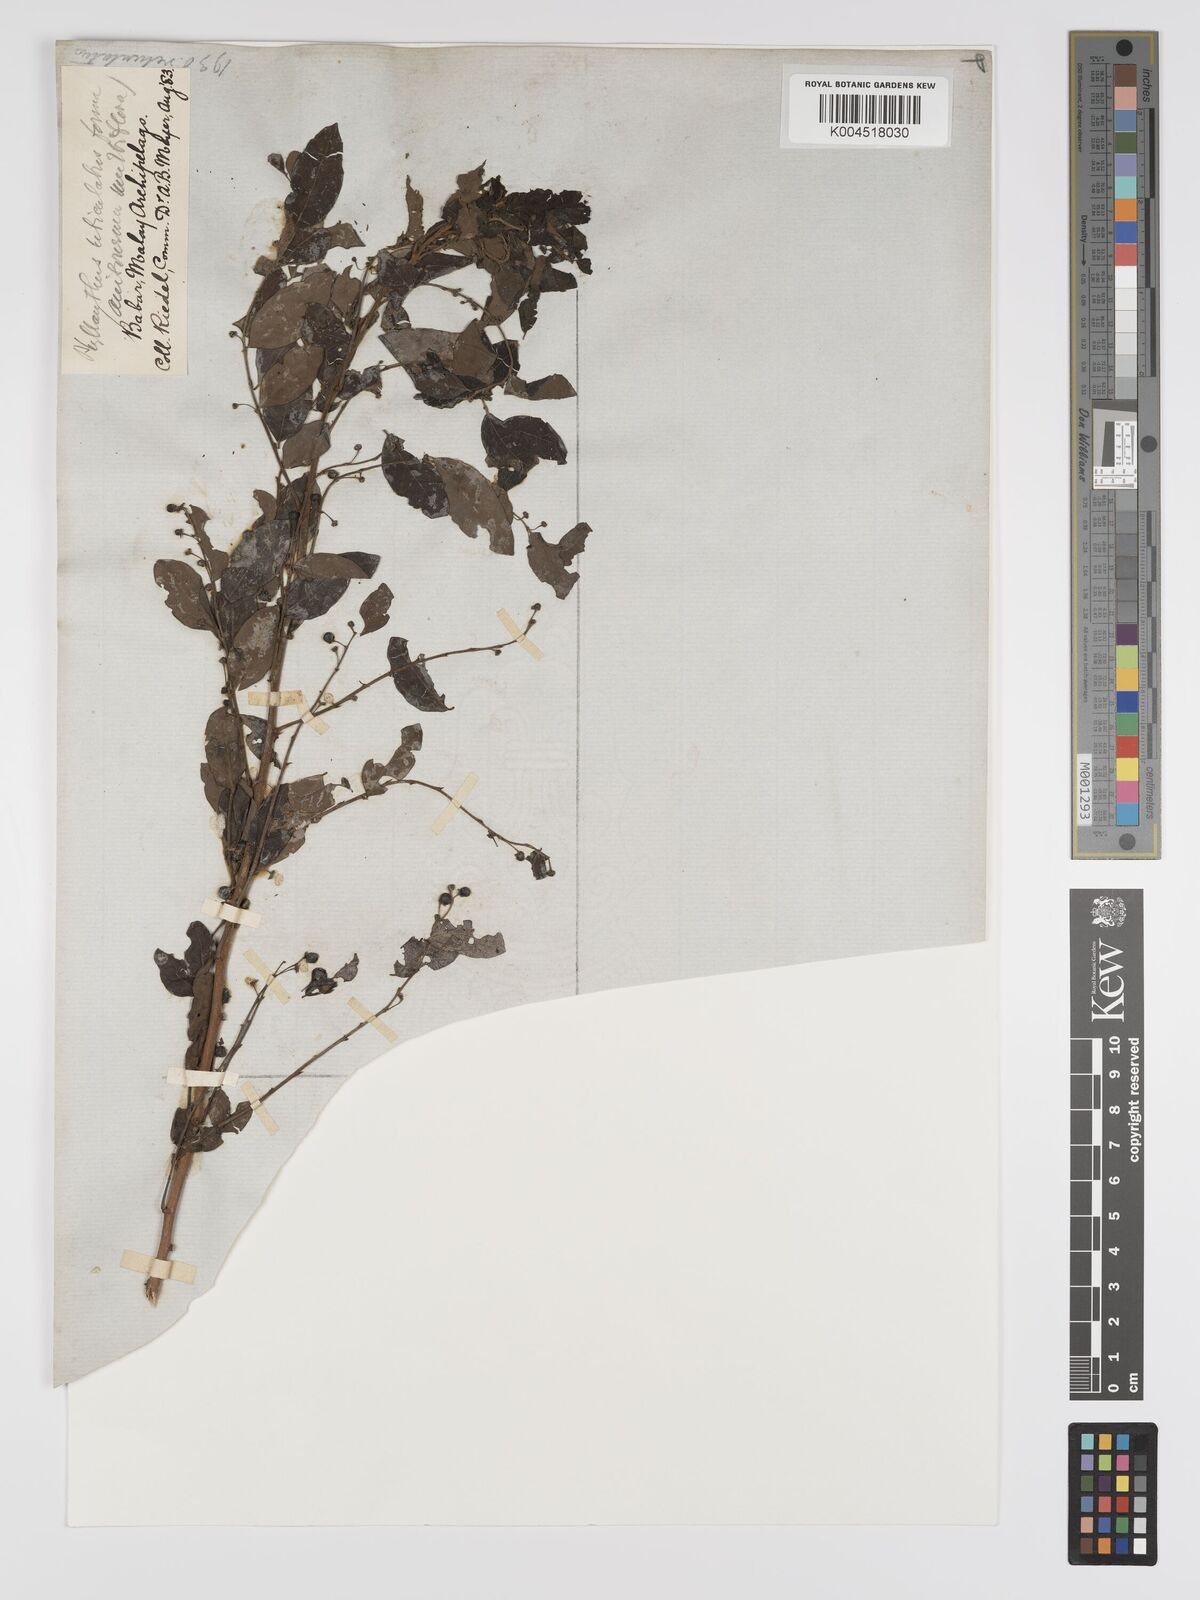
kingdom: Plantae
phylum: Tracheophyta
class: Magnoliopsida
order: Malpighiales
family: Phyllanthaceae
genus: Phyllanthus
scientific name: Phyllanthus reticulatus
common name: Potato bush
